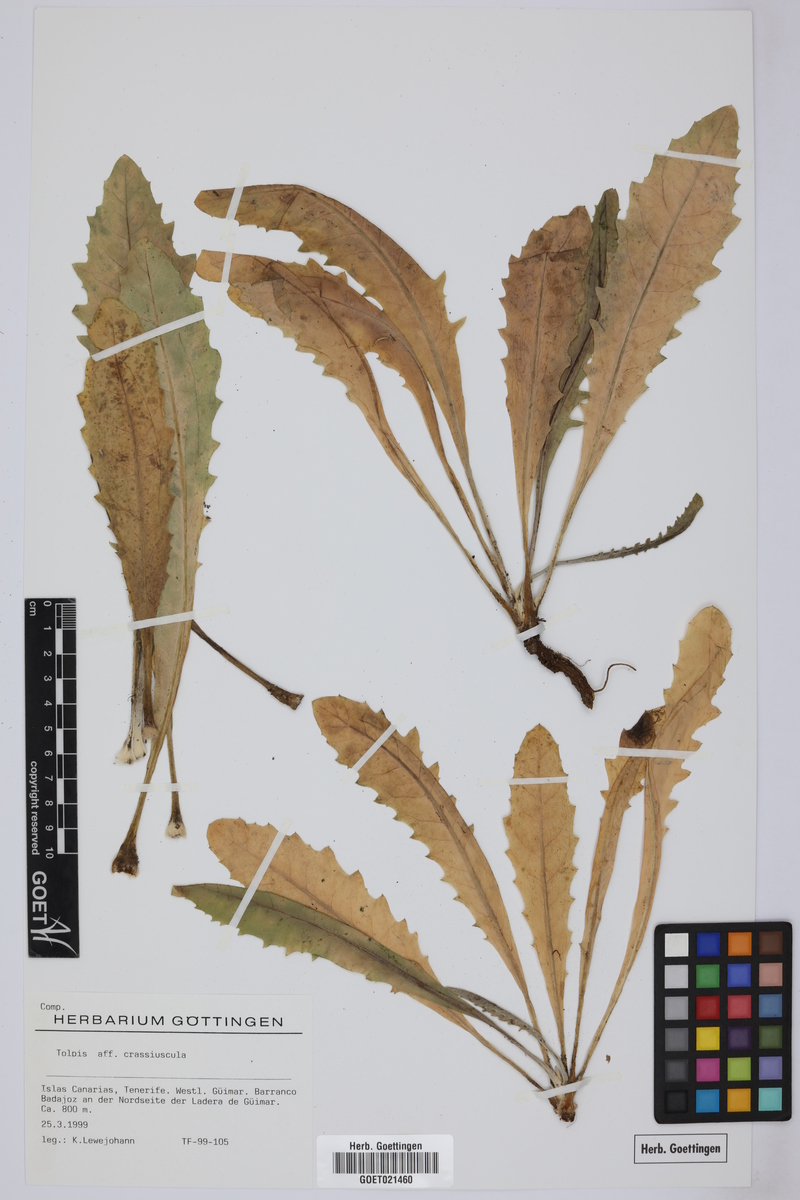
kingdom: Plantae
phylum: Tracheophyta
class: Magnoliopsida
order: Asterales
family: Asteraceae
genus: Tolpis
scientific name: Tolpis crassiuscula
